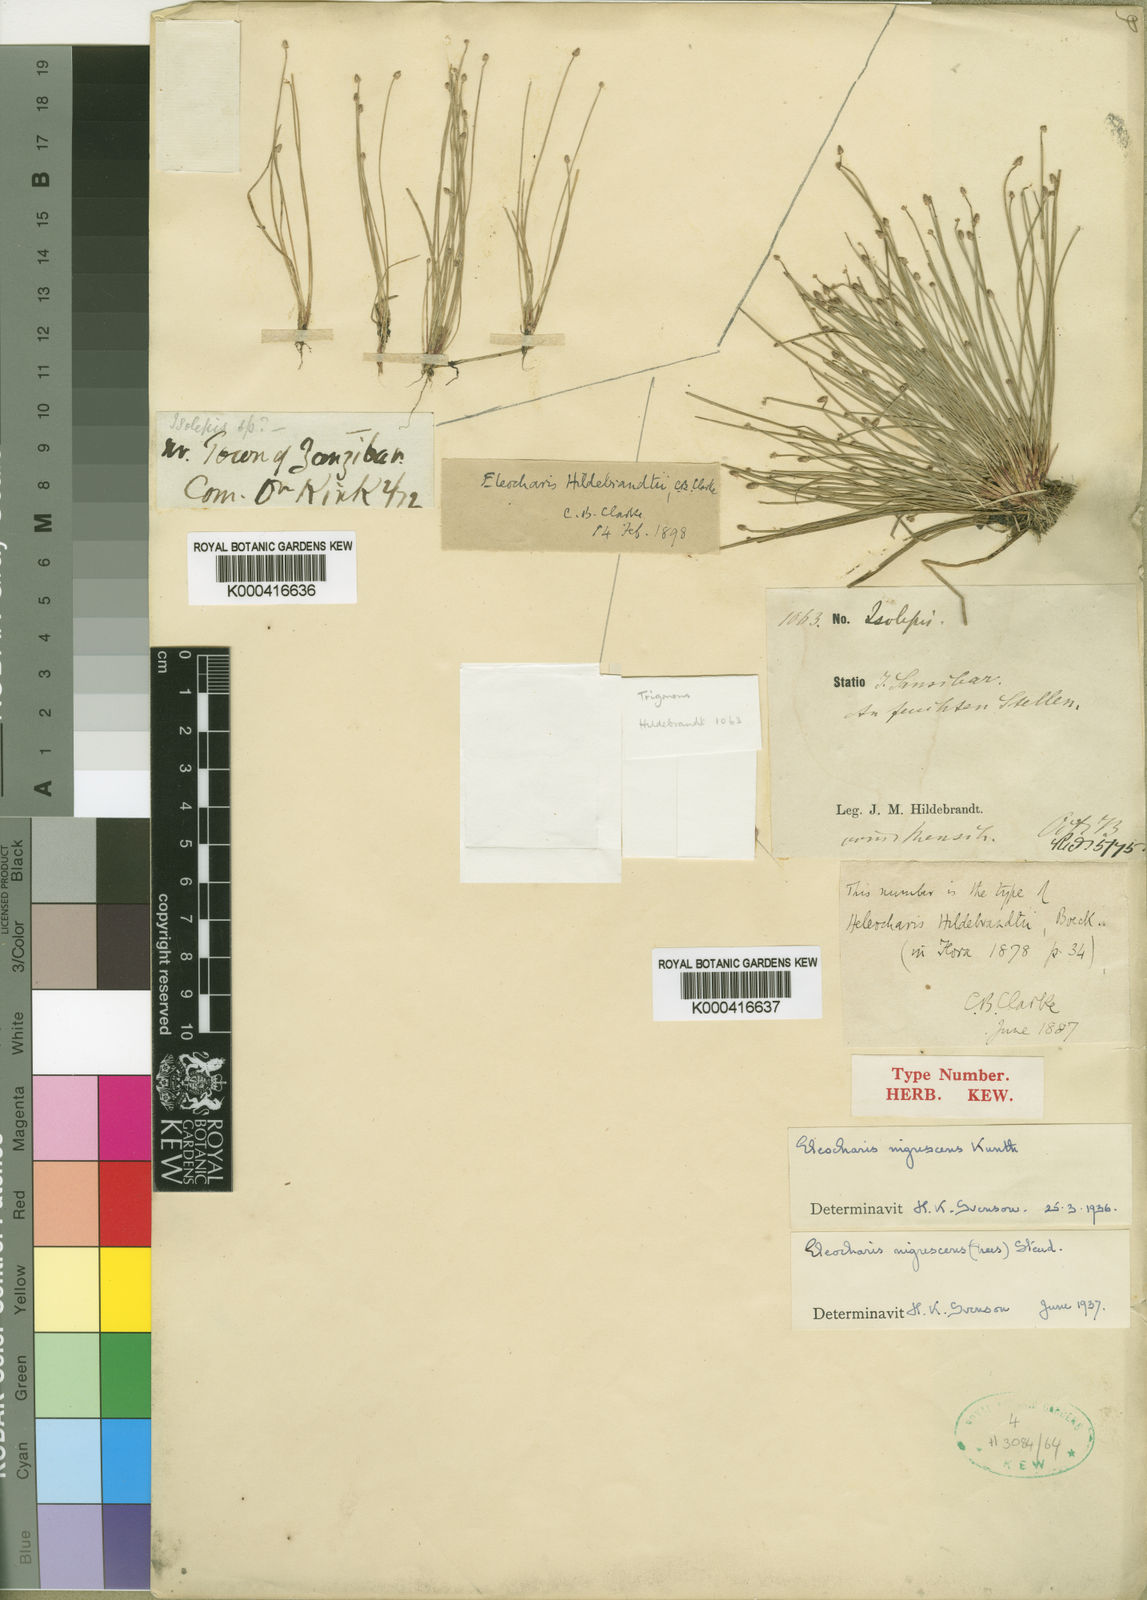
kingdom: Plantae
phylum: Tracheophyta
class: Liliopsida
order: Poales
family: Cyperaceae
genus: Eleocharis
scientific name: Eleocharis
